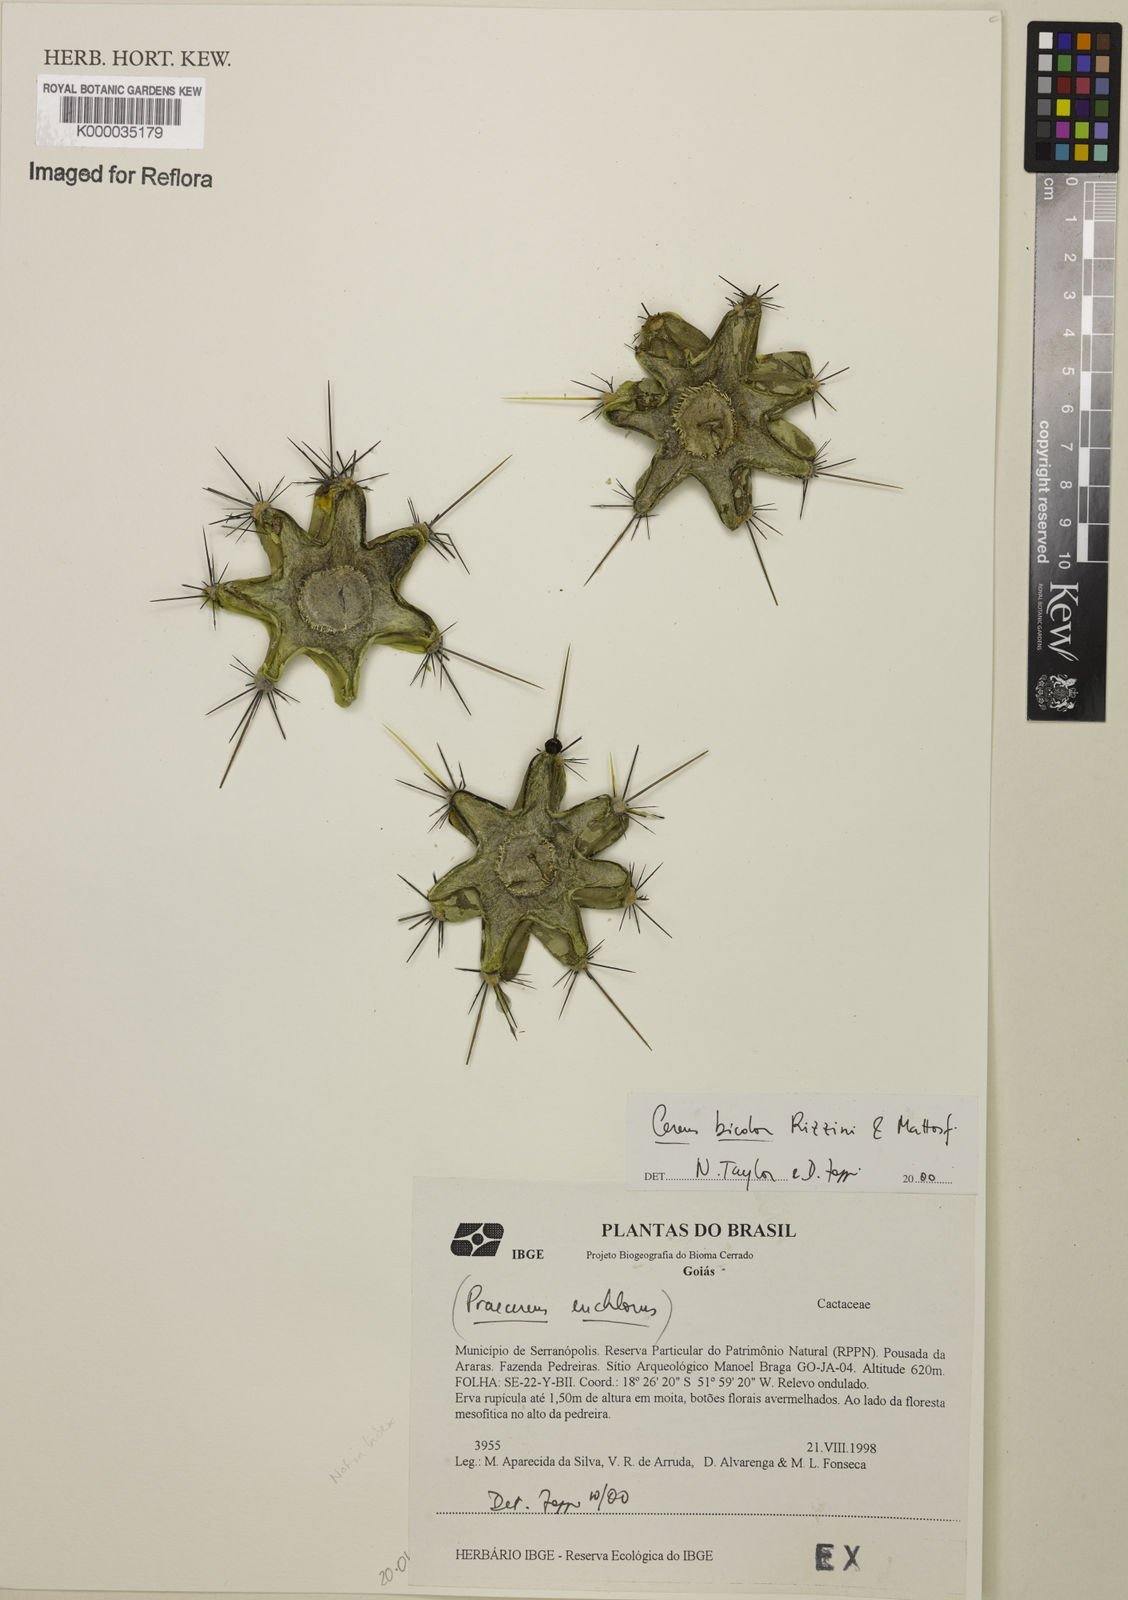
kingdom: Plantae
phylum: Tracheophyta
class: Magnoliopsida
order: Caryophyllales
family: Cactaceae
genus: Cereus
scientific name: Cereus bicolor
